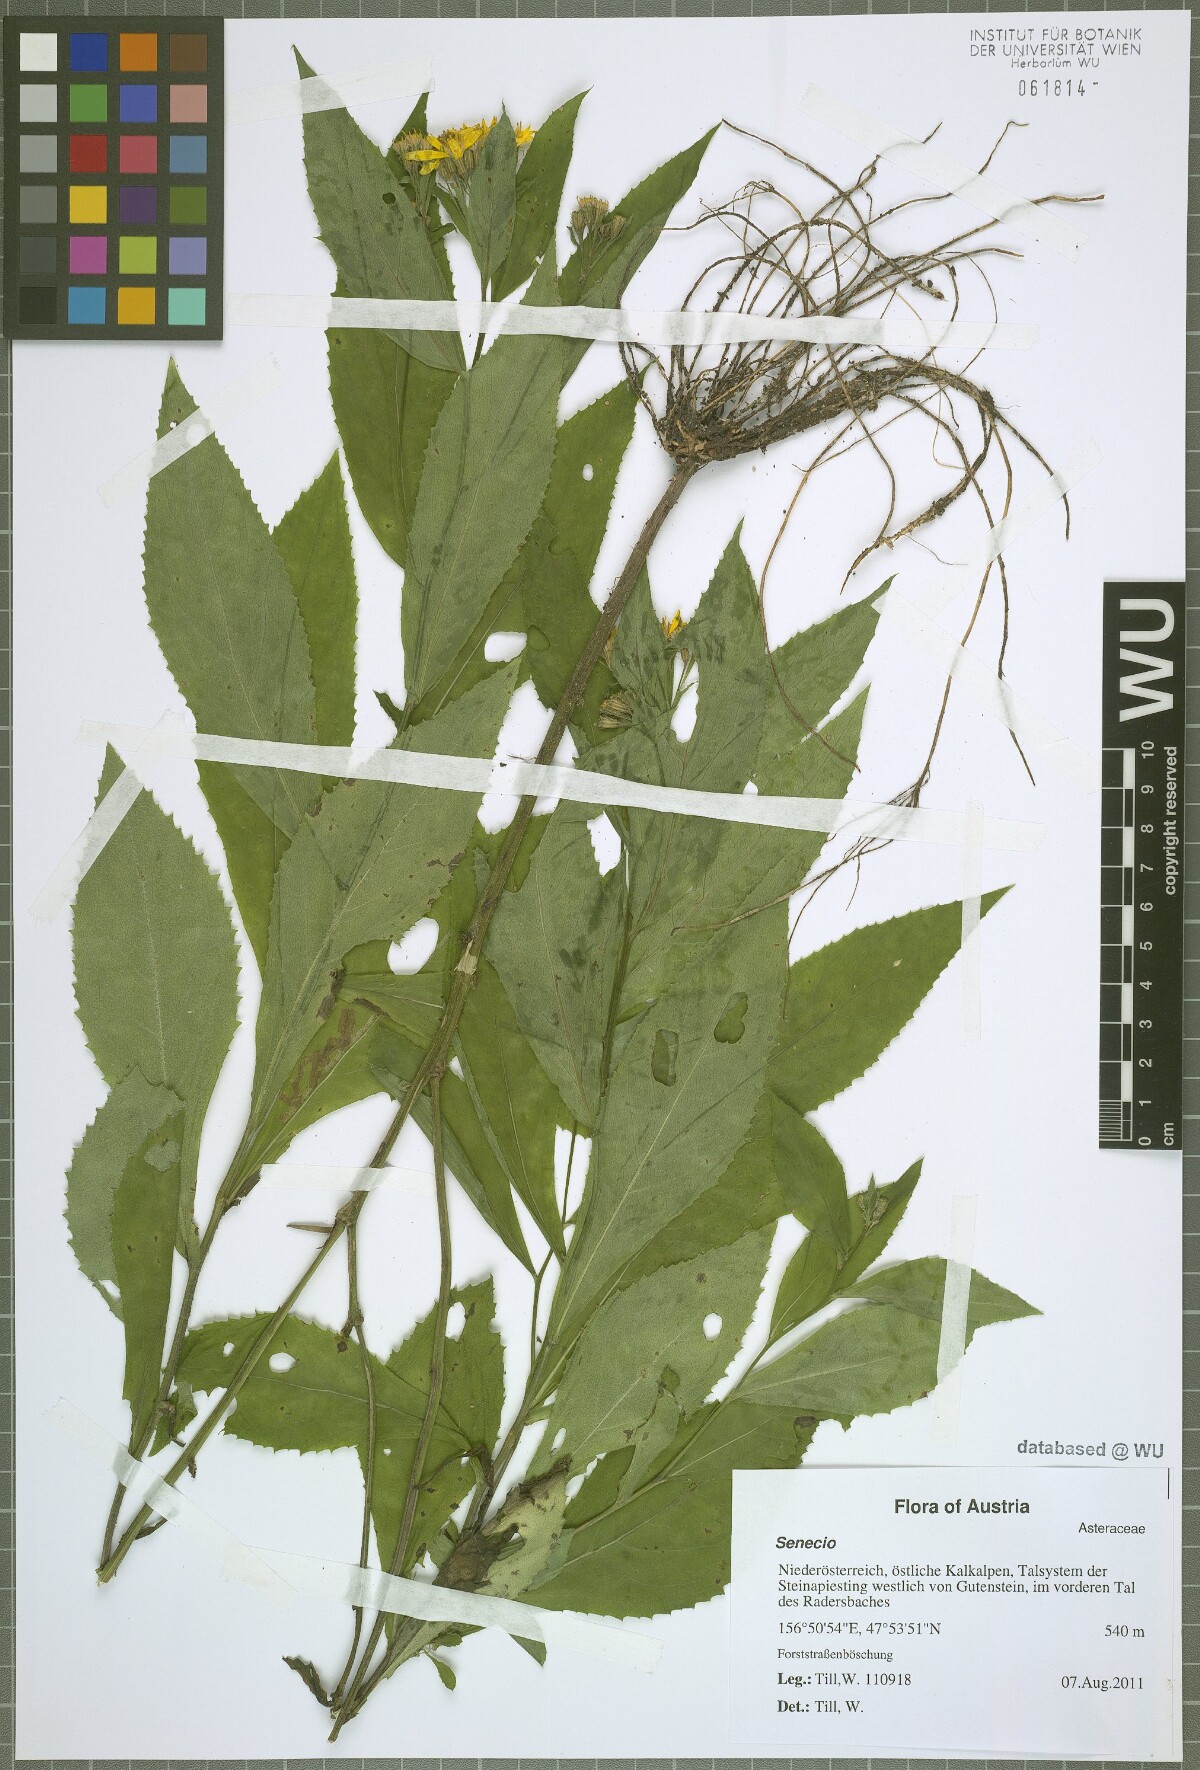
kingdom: Plantae
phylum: Tracheophyta
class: Magnoliopsida
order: Asterales
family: Asteraceae
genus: Senecio
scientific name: Senecio germanicus
